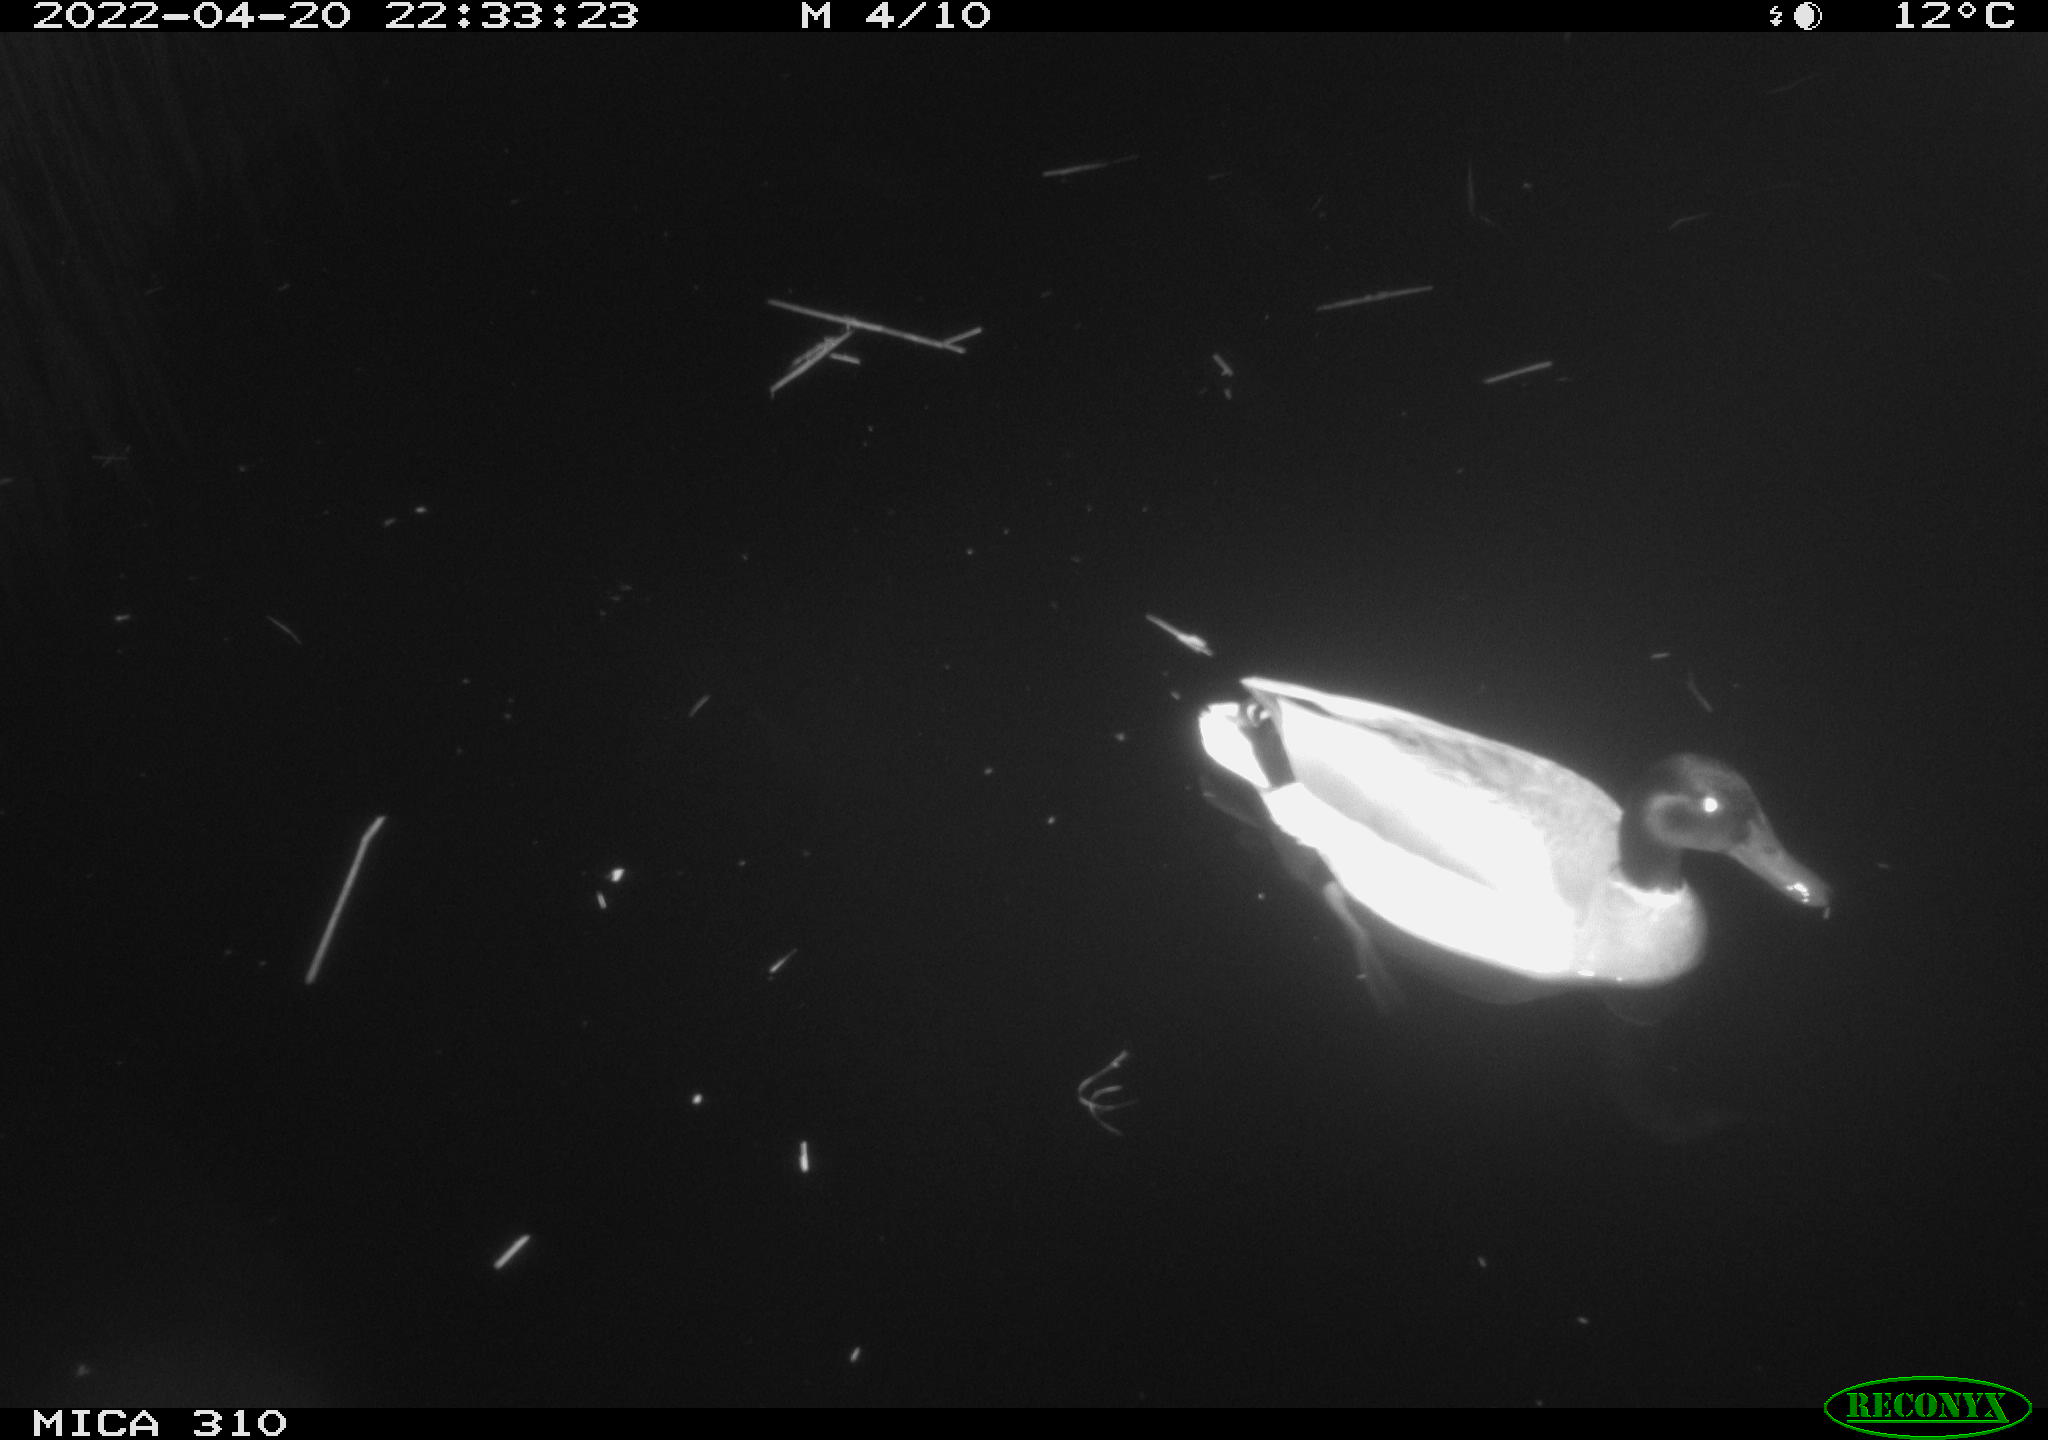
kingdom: Animalia
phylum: Chordata
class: Aves
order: Anseriformes
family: Anatidae
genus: Anas
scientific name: Anas platyrhynchos
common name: Mallard
